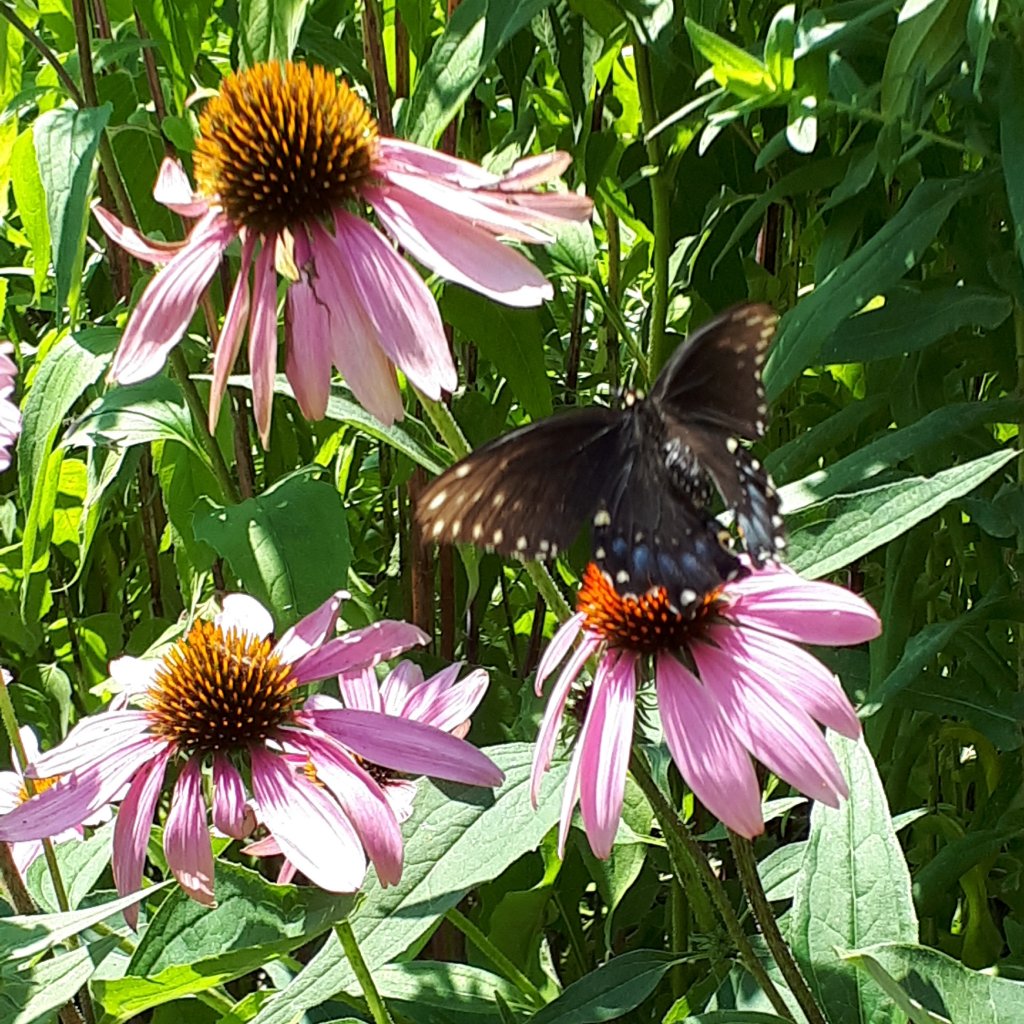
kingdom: Animalia
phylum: Arthropoda
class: Insecta
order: Lepidoptera
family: Papilionidae
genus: Papilio
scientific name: Papilio polyxenes
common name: Black Swallowtail
